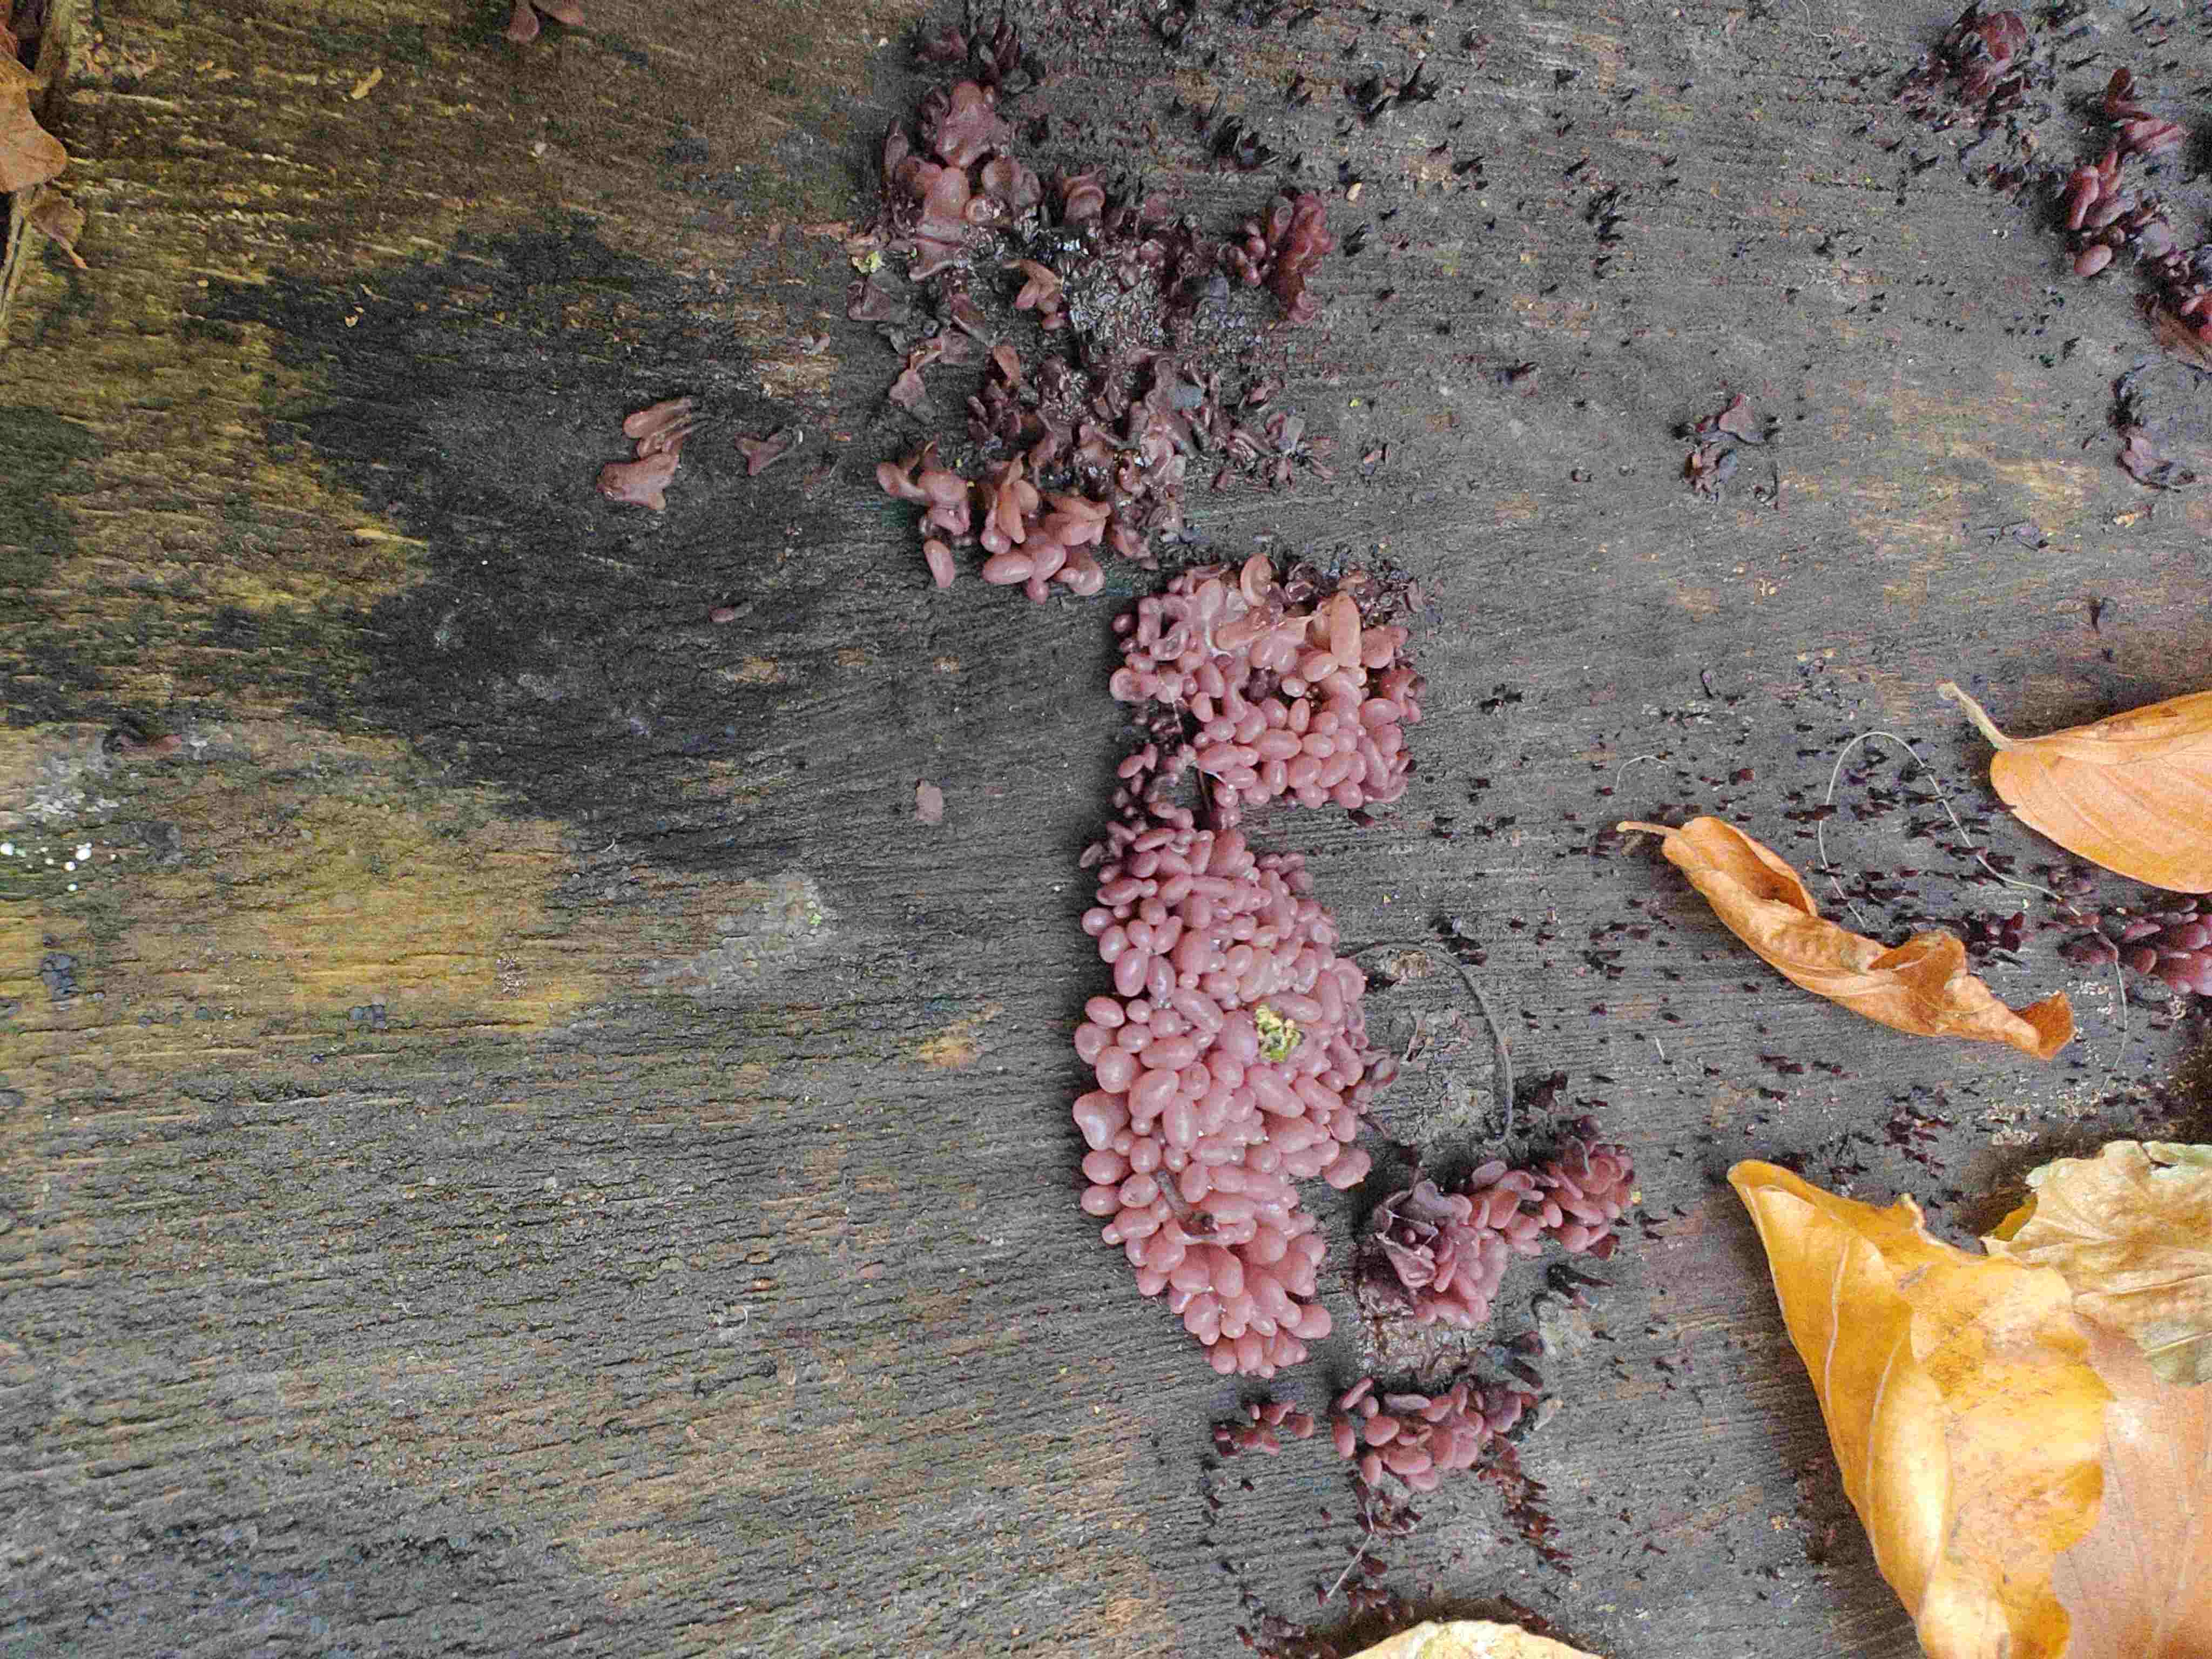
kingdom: Fungi
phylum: Ascomycota
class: Leotiomycetes
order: Helotiales
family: Gelatinodiscaceae
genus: Ascocoryne
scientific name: Ascocoryne sarcoides
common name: rødlilla sejskive
